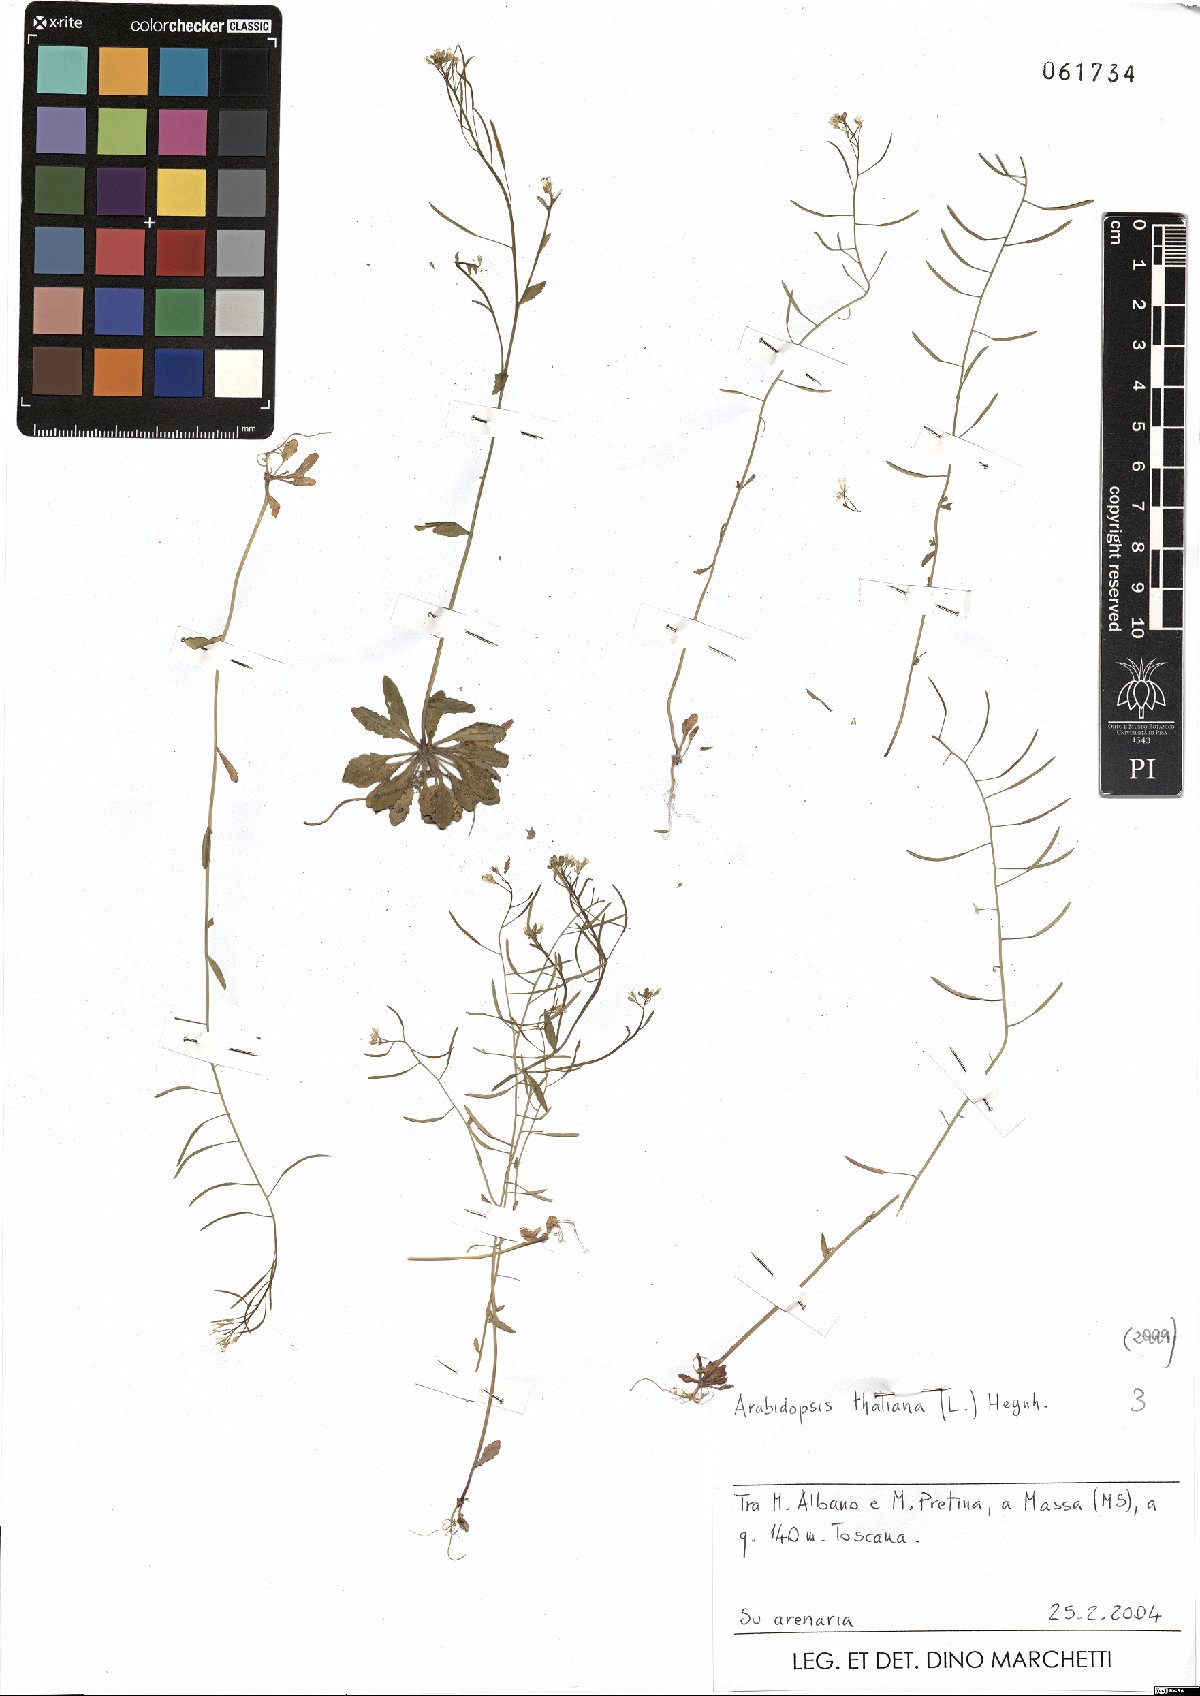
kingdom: Plantae
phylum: Tracheophyta
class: Magnoliopsida
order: Brassicales
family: Brassicaceae
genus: Arabidopsis
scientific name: Arabidopsis thaliana
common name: Thale cress
